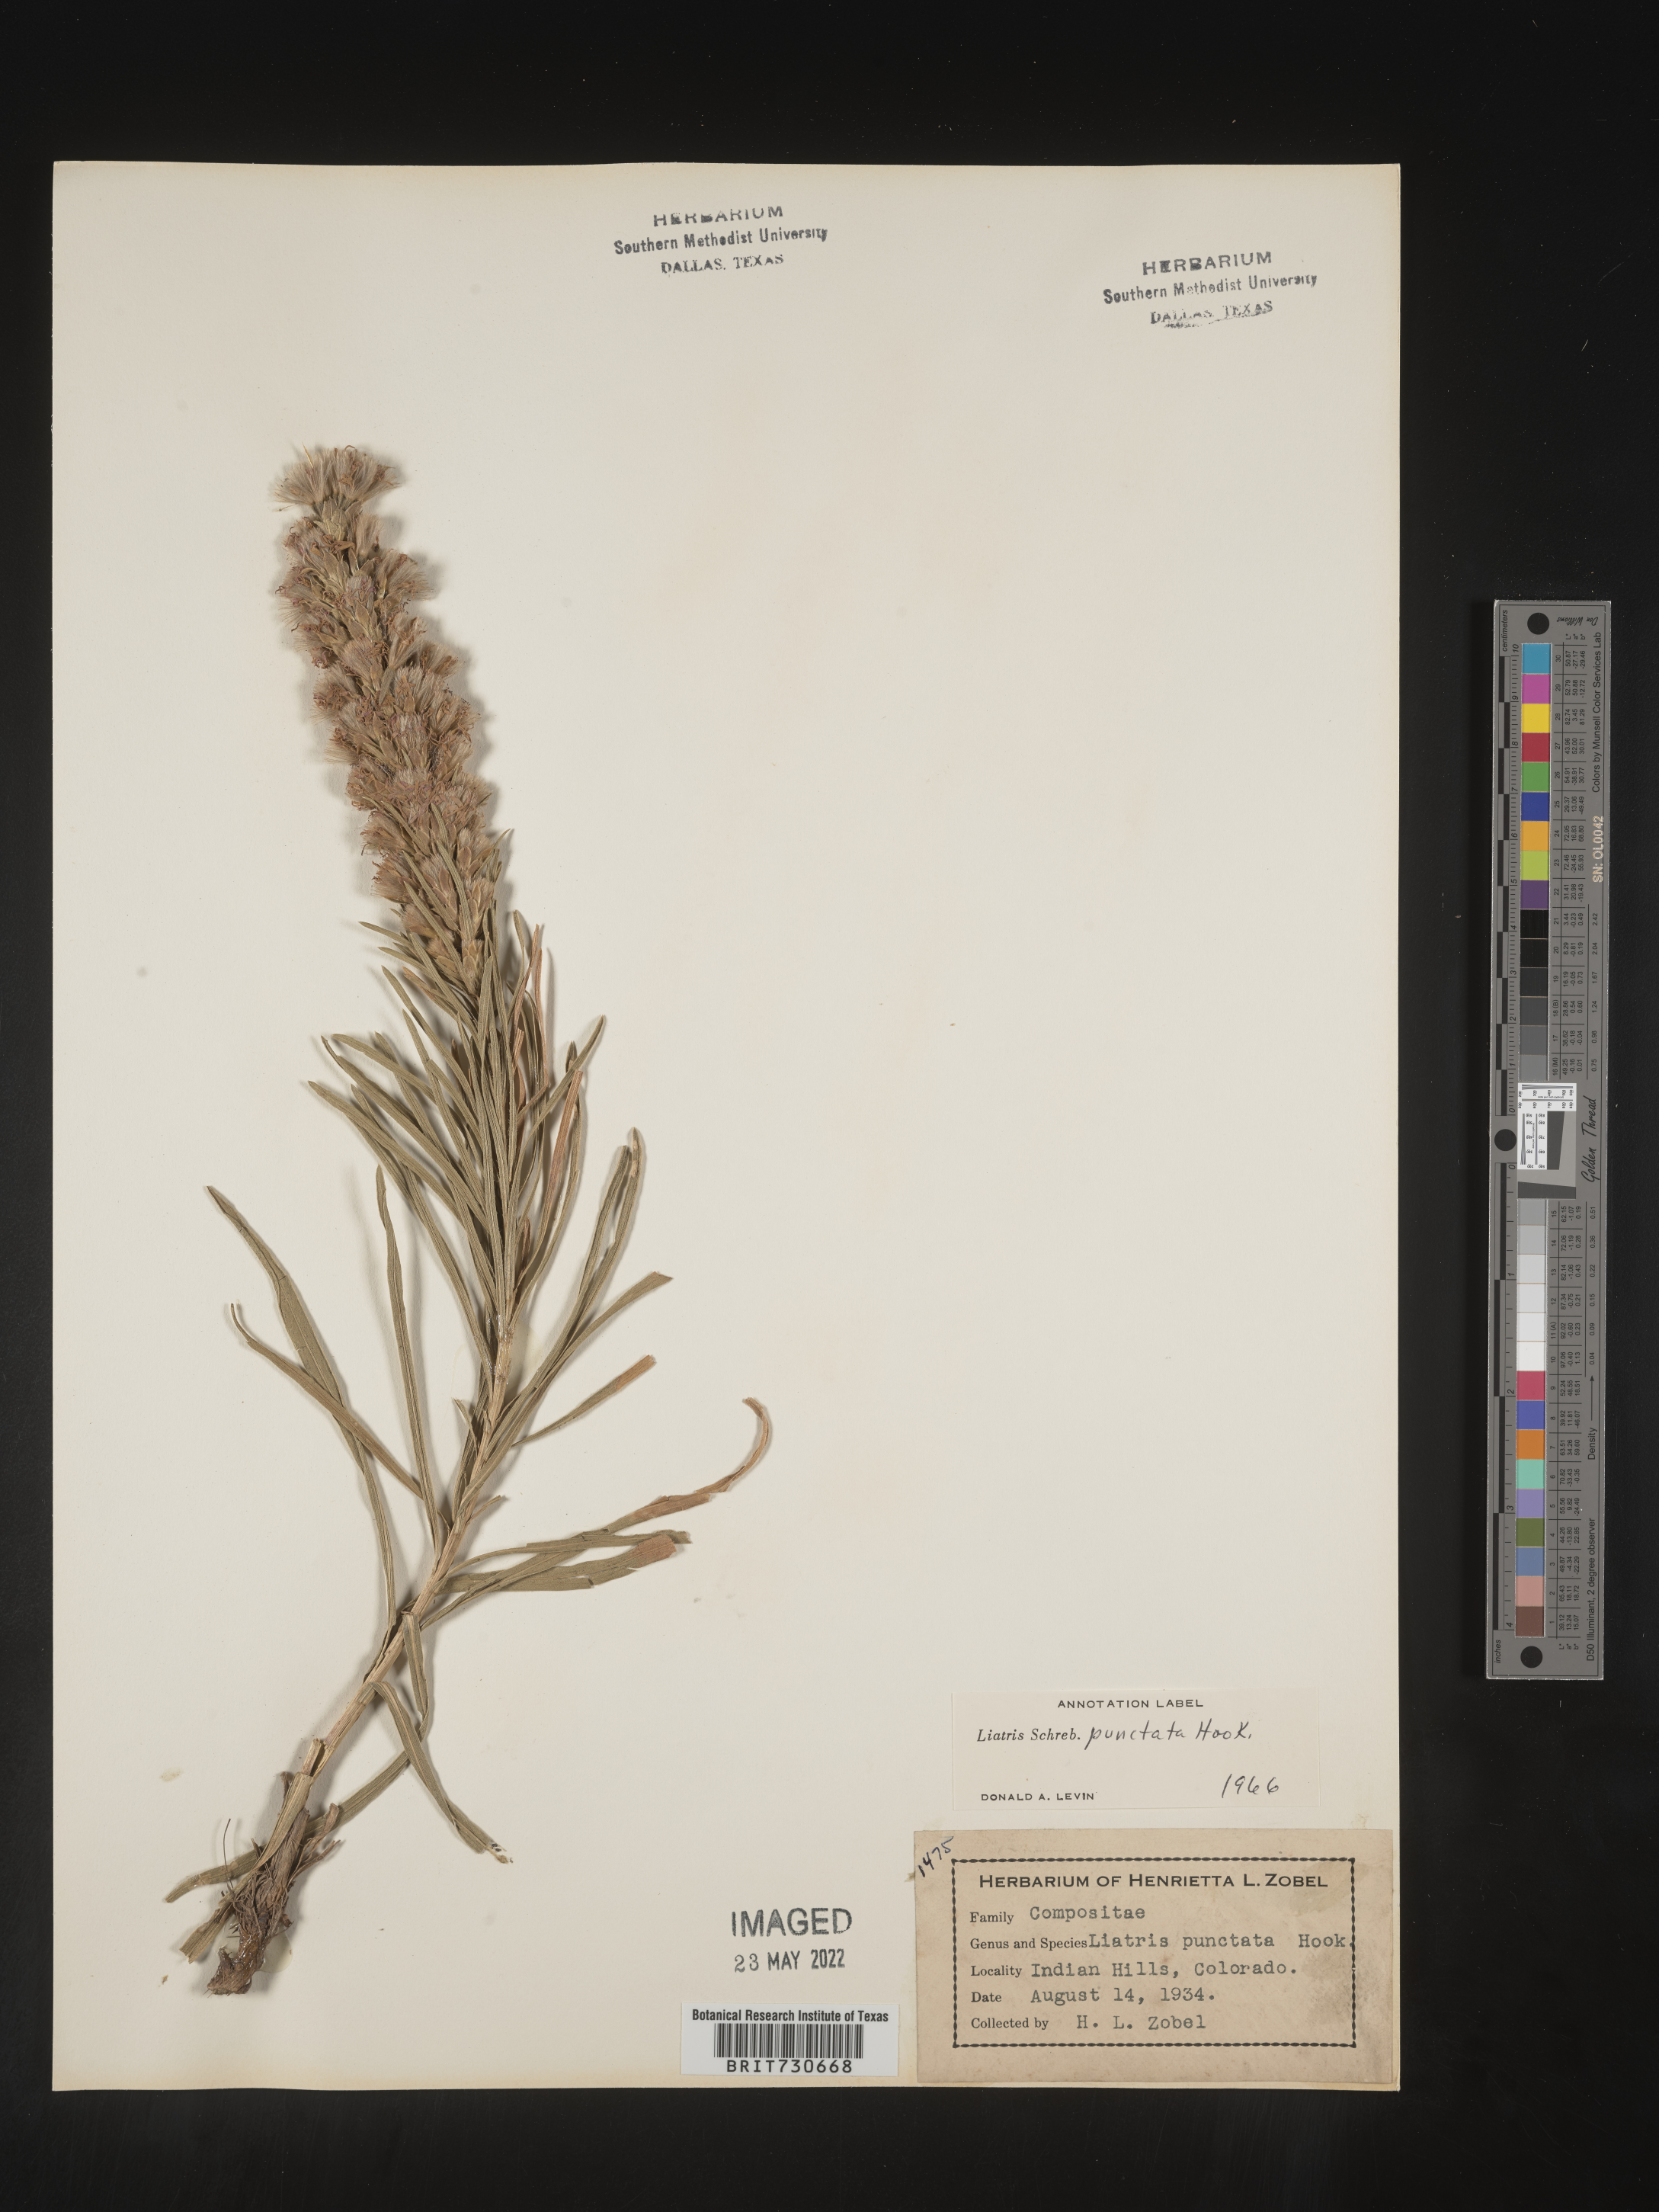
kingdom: Plantae
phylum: Tracheophyta
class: Magnoliopsida
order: Asterales
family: Asteraceae
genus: Liatris
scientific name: Liatris punctata
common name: Dotted gayfeather
